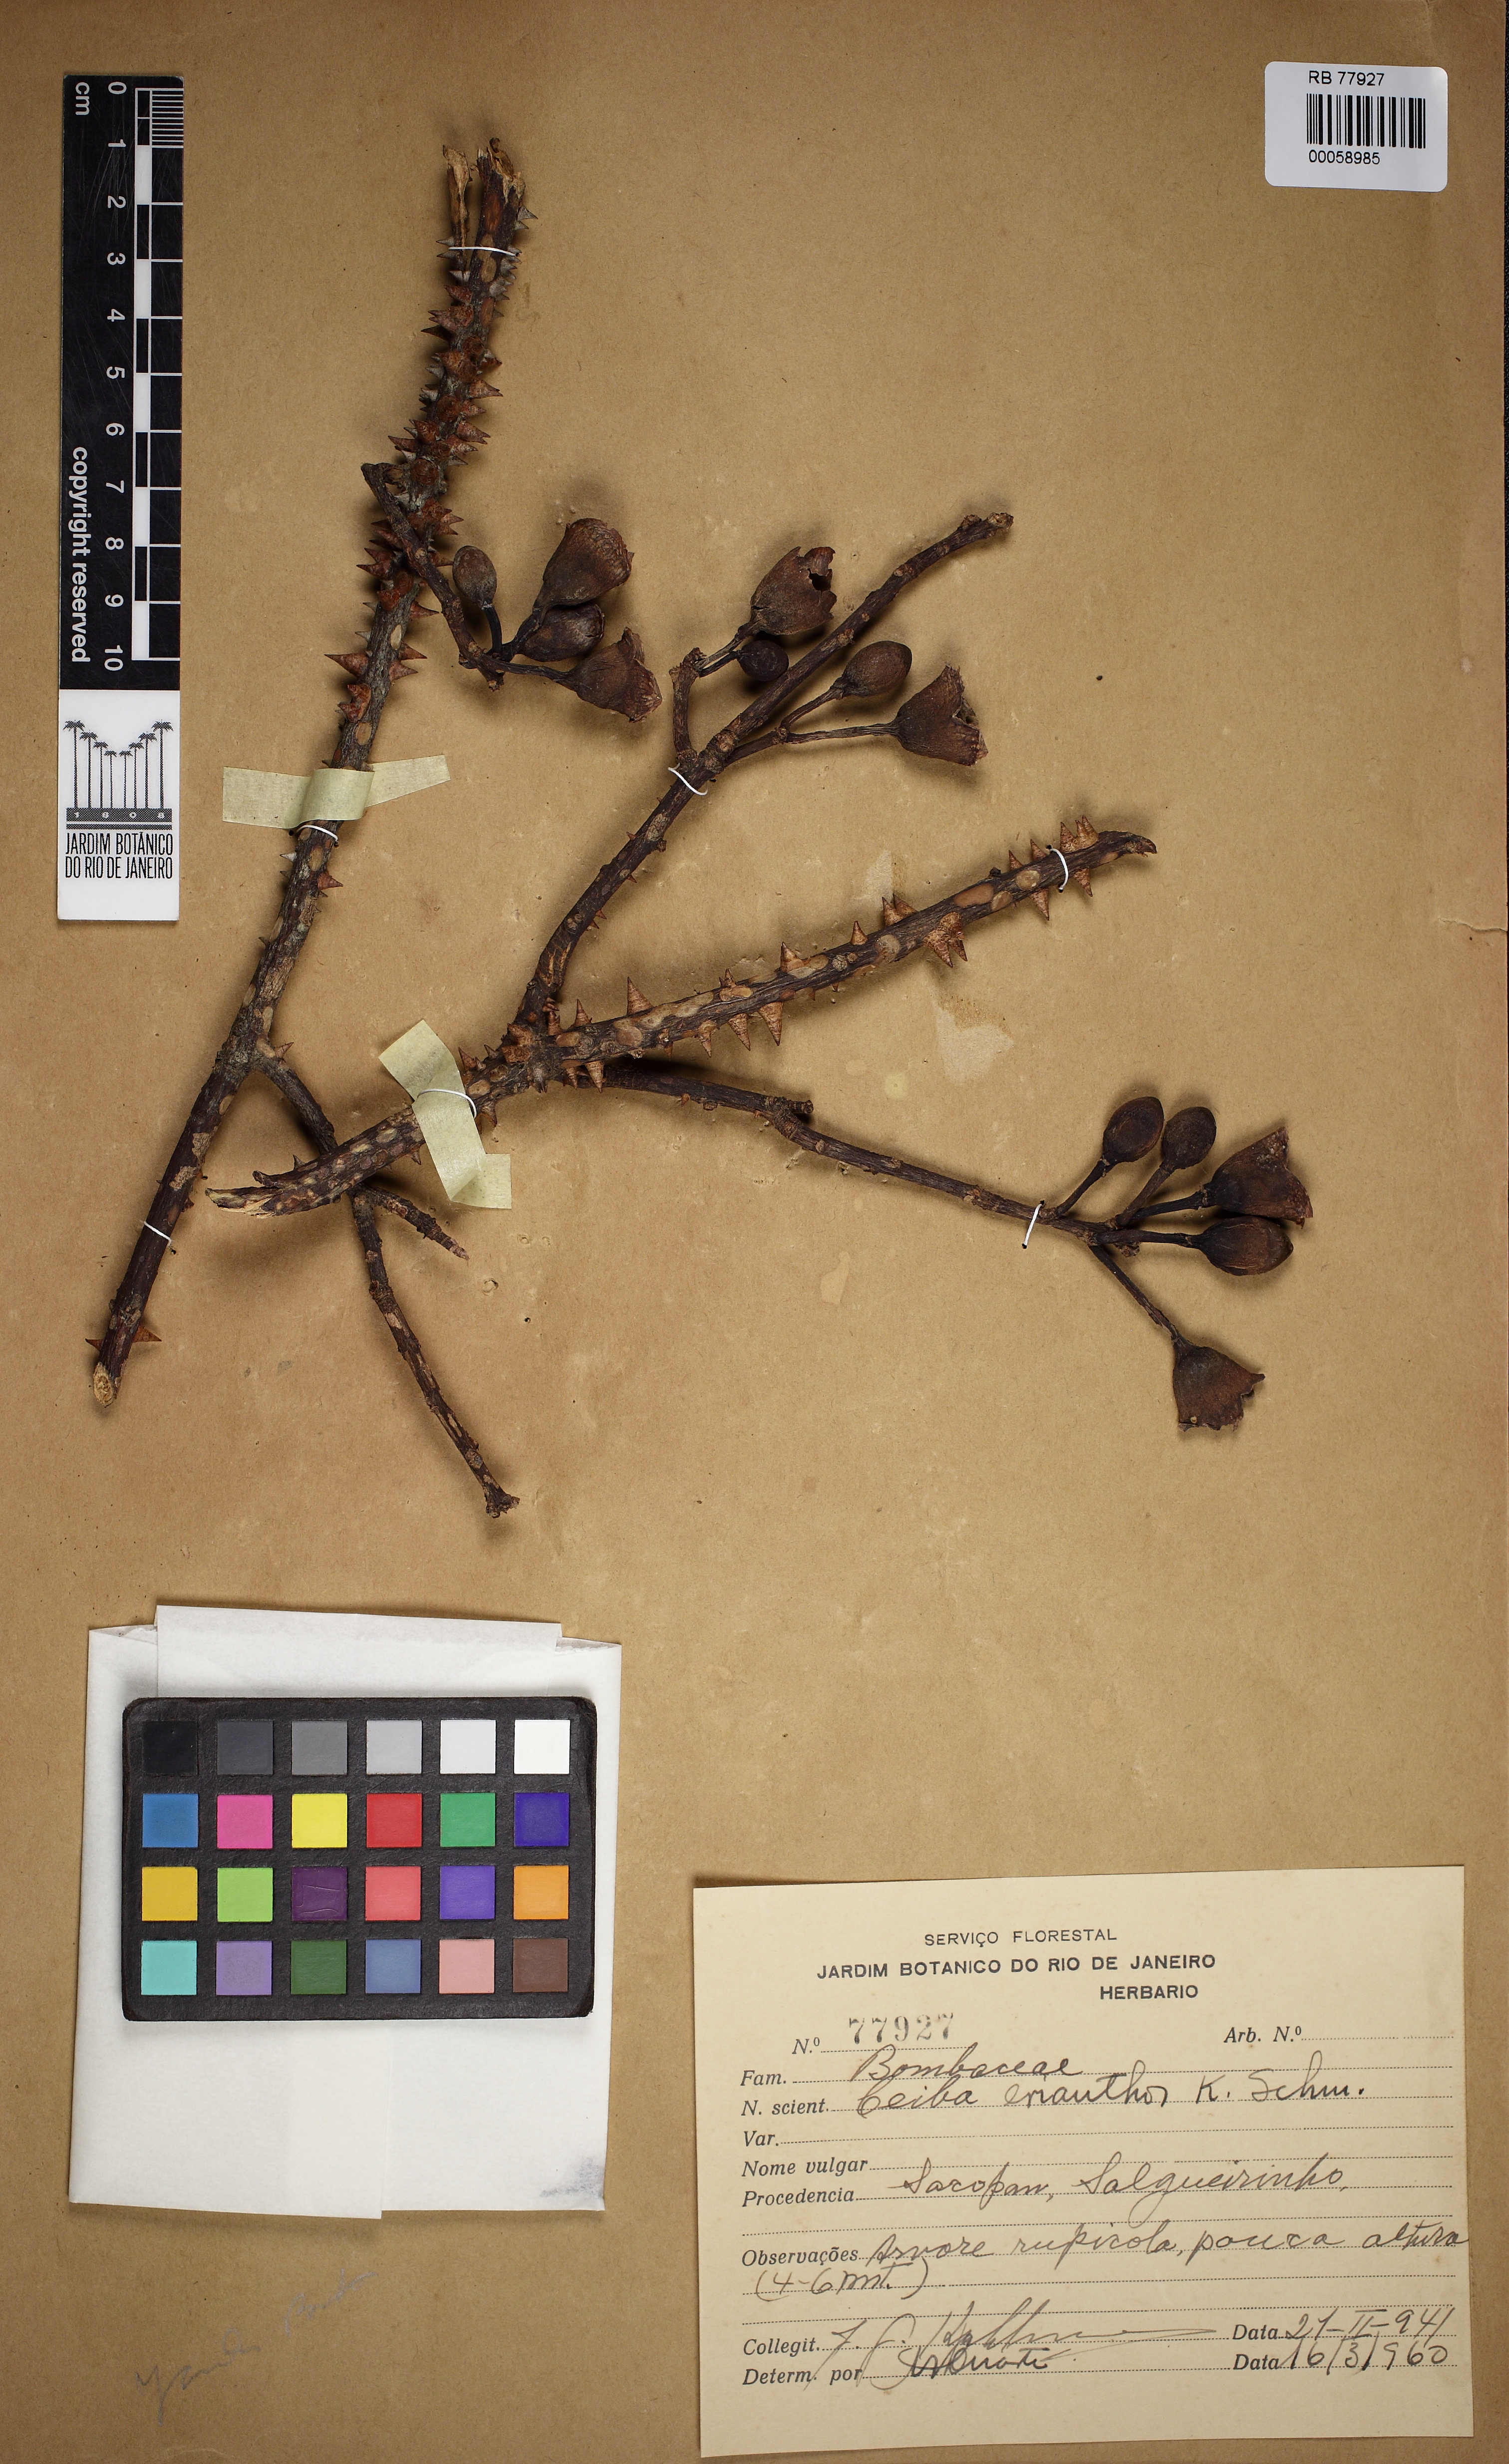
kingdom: Plantae
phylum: Tracheophyta
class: Magnoliopsida
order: Malvales
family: Malvaceae
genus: Ceiba
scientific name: Ceiba crispiflora
